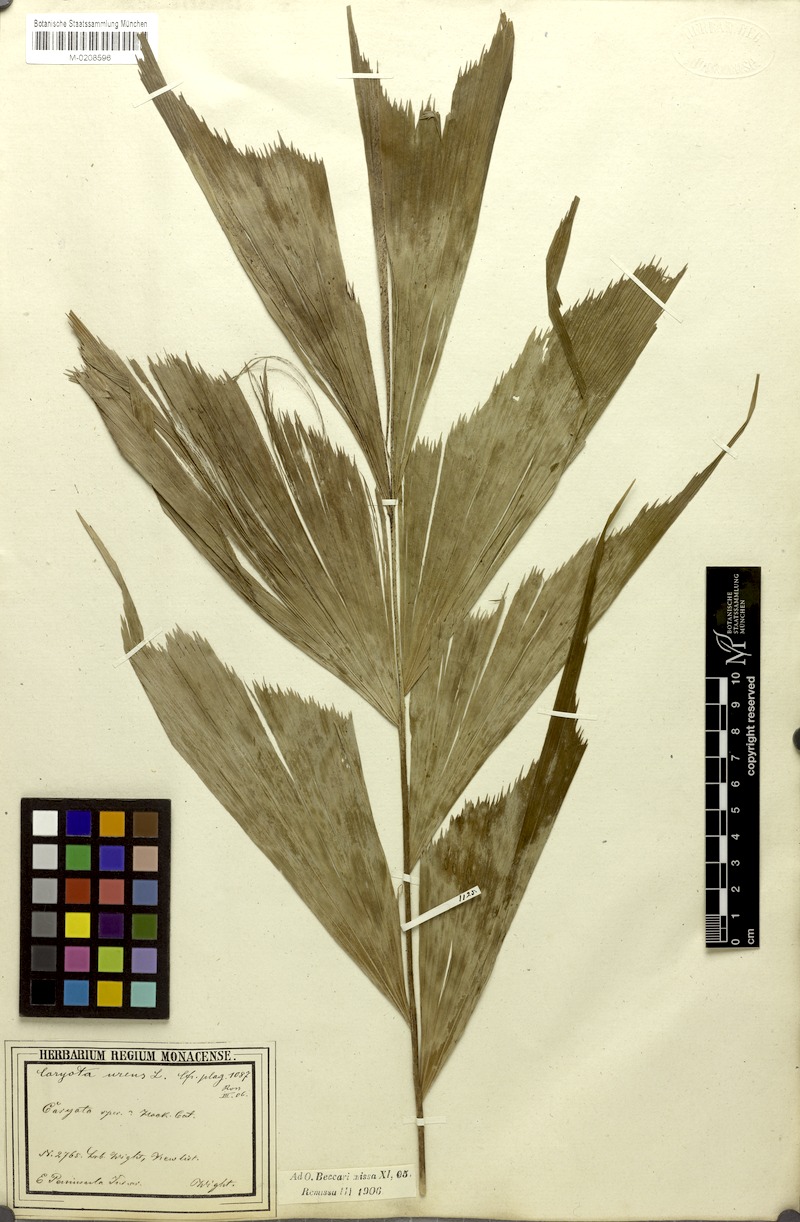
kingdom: Plantae
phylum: Tracheophyta
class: Liliopsida
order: Arecales
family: Arecaceae
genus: Caryota
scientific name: Caryota urens
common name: Jaggery palm
